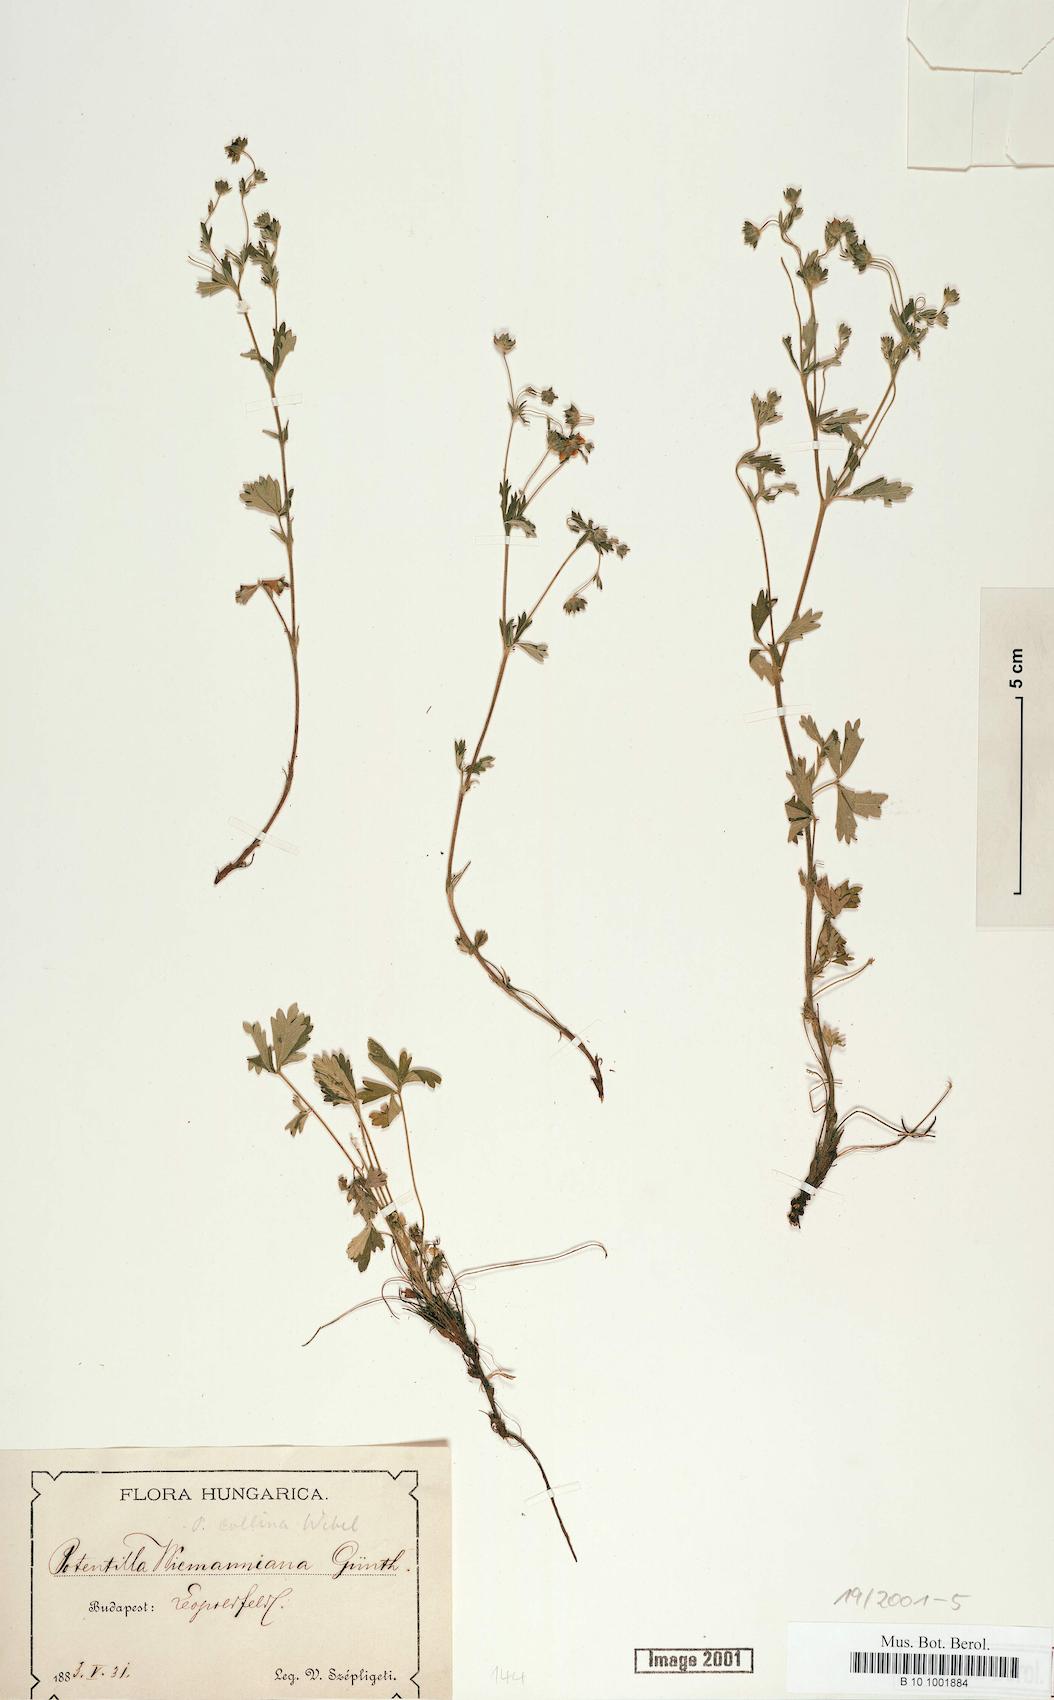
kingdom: Plantae
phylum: Tracheophyta
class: Magnoliopsida
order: Rosales
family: Rosaceae
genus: Potentilla
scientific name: Potentilla
